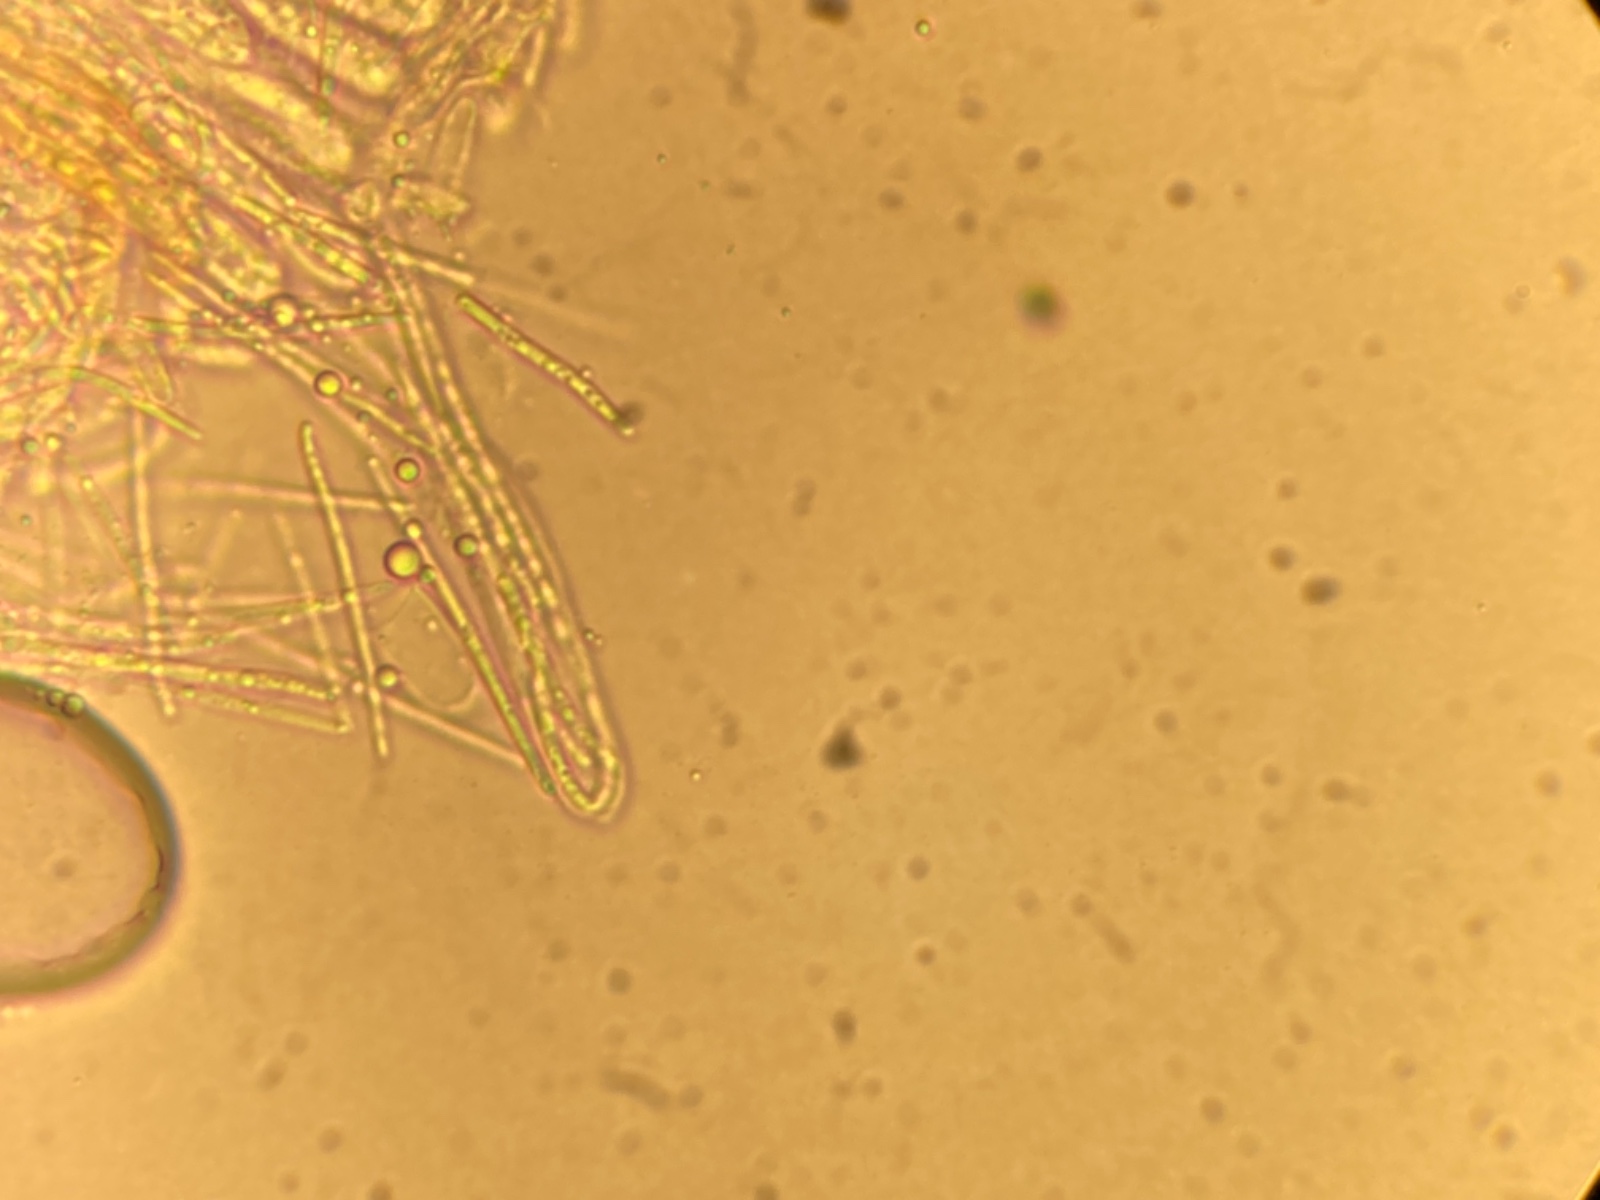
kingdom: Fungi
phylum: Ascomycota
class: Leotiomycetes
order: Helotiales
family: Lachnaceae
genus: Lachnum
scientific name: Lachnum apalum
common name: siv-frynseskive
